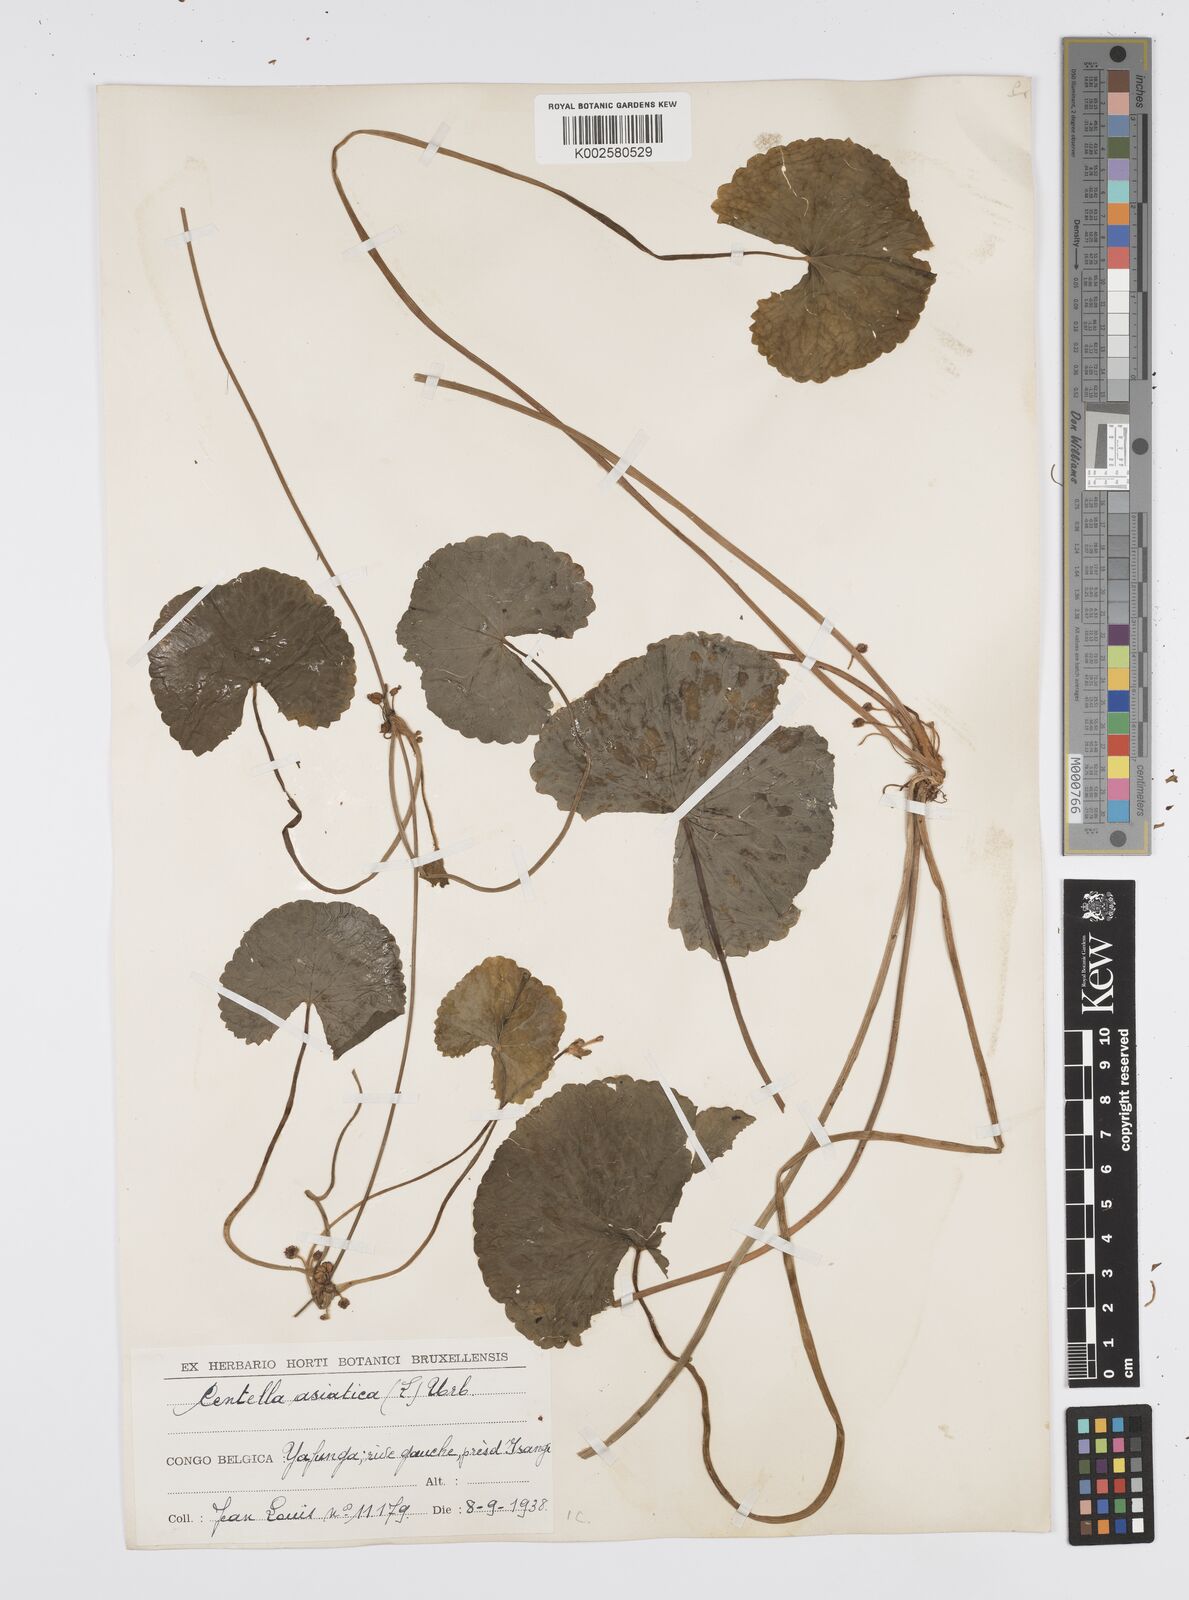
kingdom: Plantae
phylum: Tracheophyta
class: Magnoliopsida
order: Apiales
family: Apiaceae
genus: Centella
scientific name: Centella asiatica
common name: Spadeleaf
